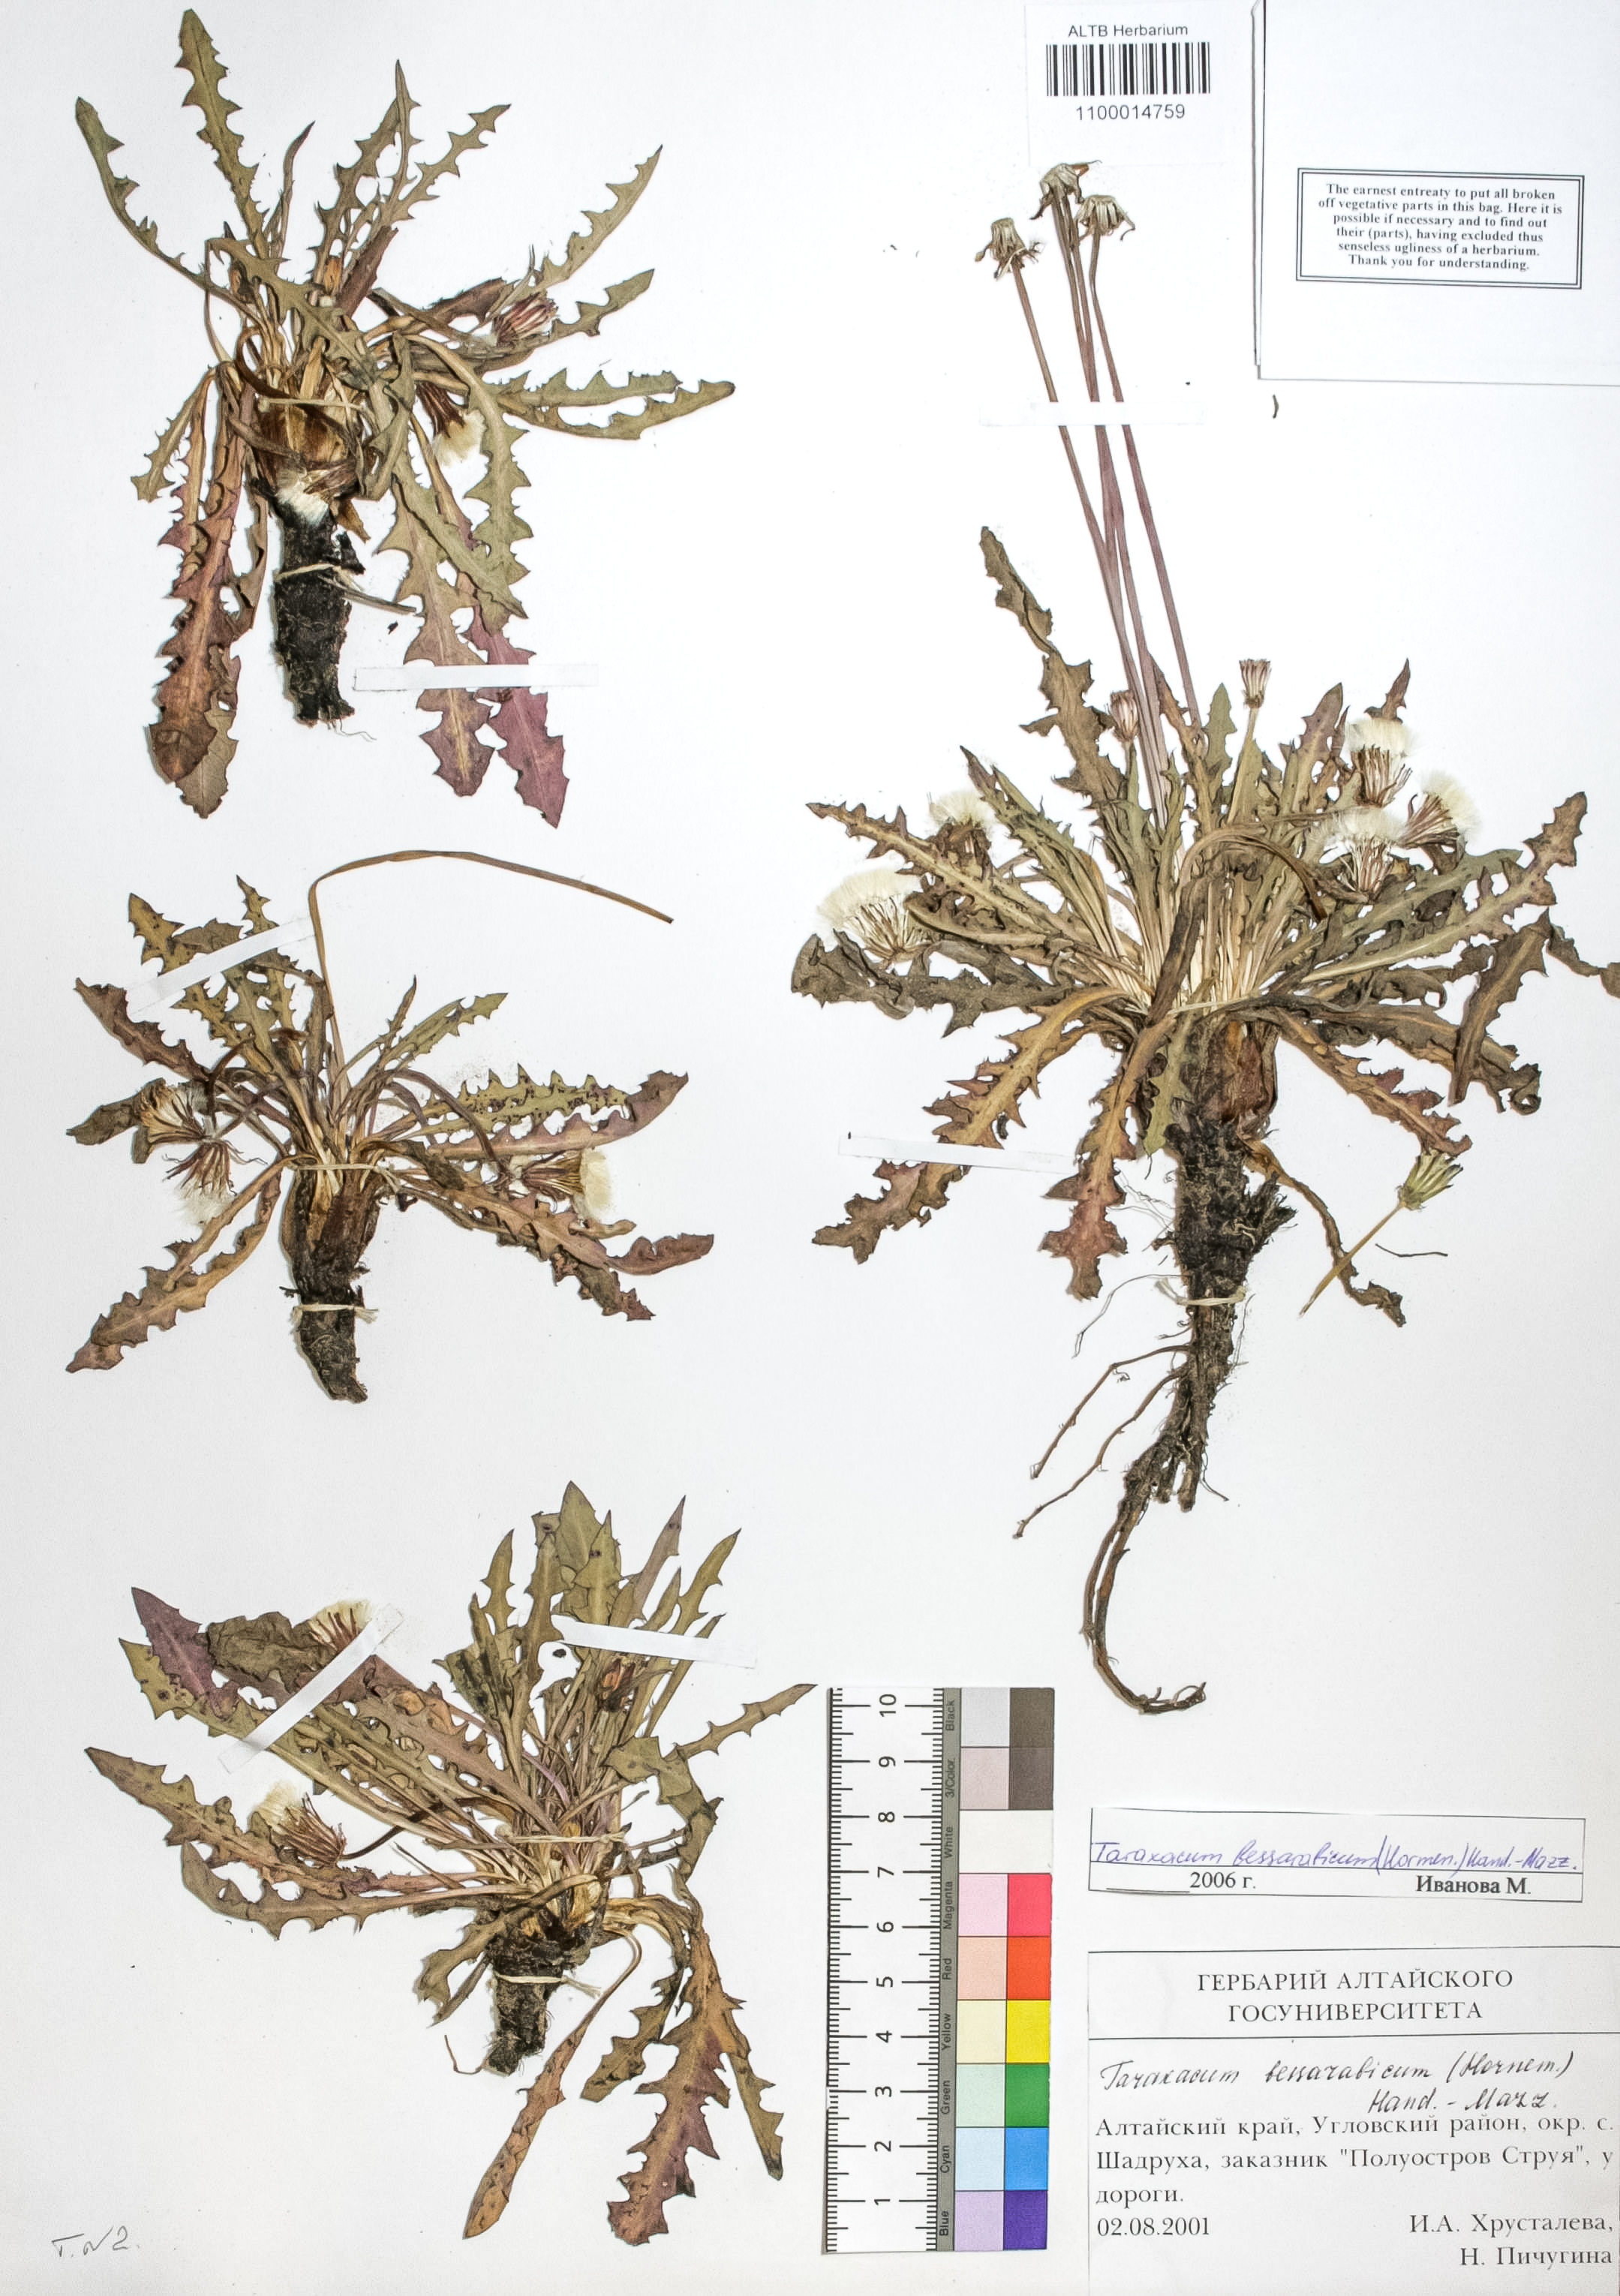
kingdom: Plantae
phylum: Tracheophyta
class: Magnoliopsida
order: Asterales
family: Asteraceae
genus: Taraxacum
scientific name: Taraxacum bessarabicum
